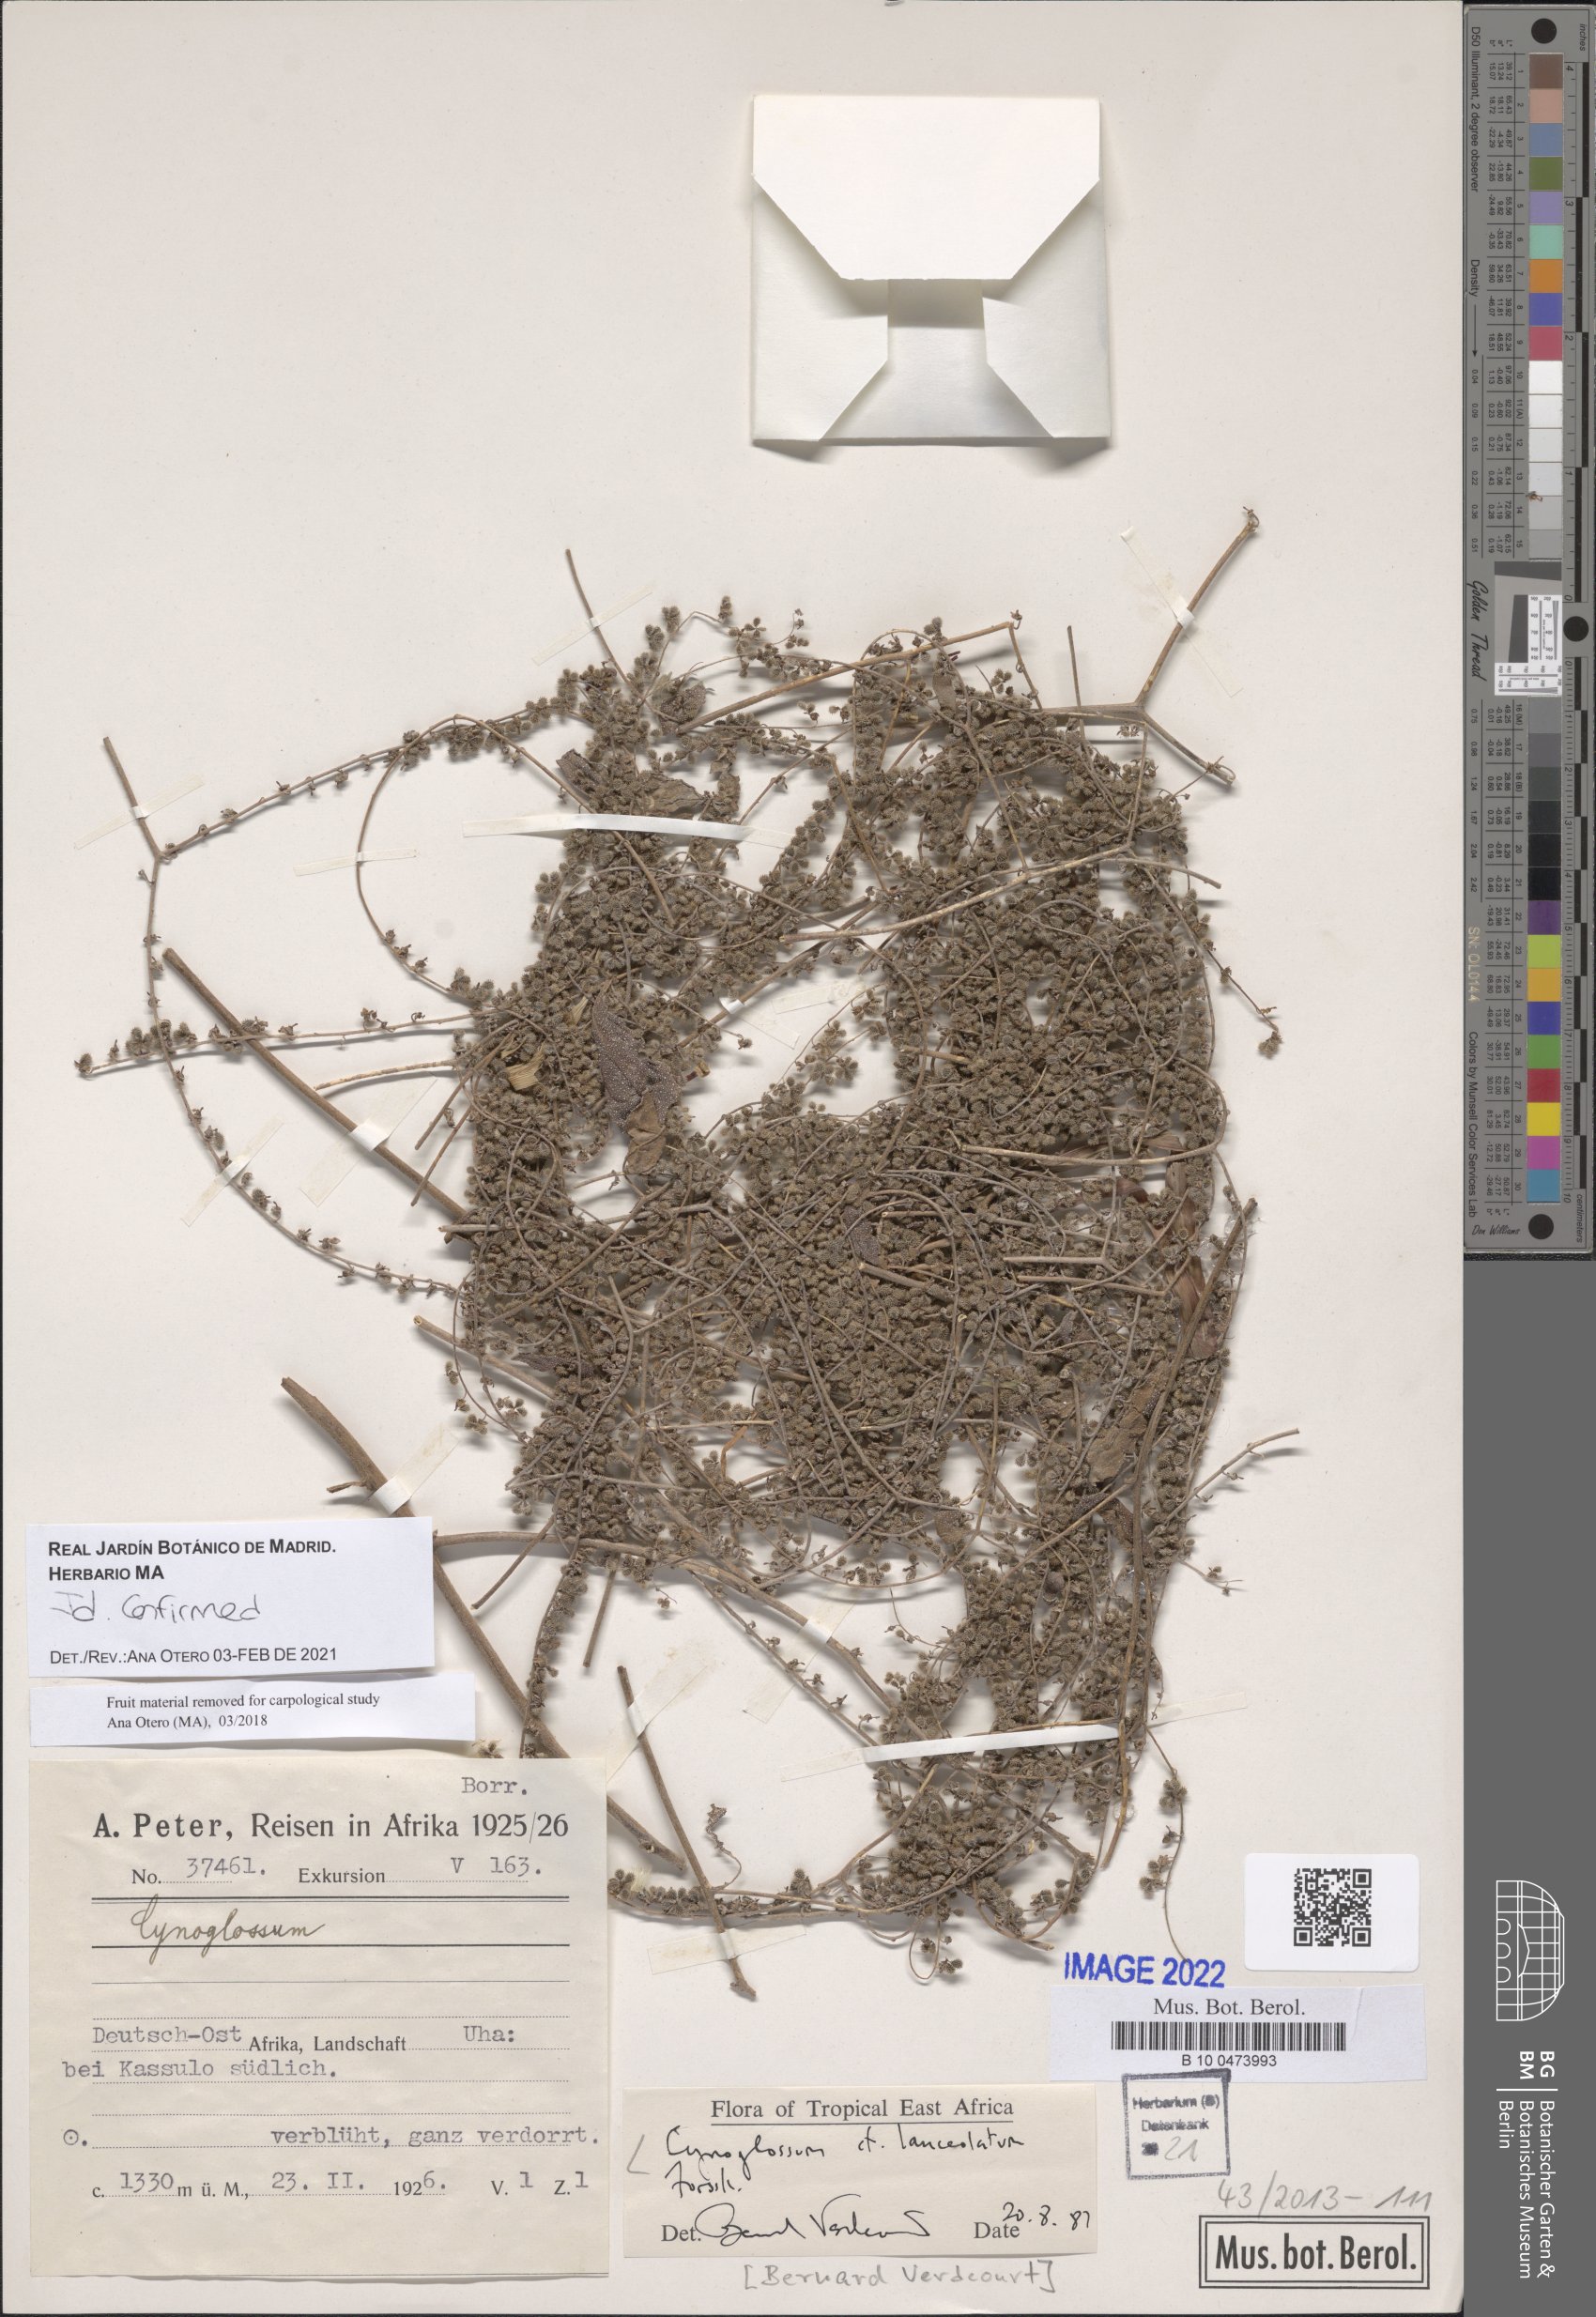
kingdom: Plantae
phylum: Tracheophyta
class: Magnoliopsida
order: Boraginales
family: Boraginaceae
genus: Paracynoglossum
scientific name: Paracynoglossum lanceolatum
